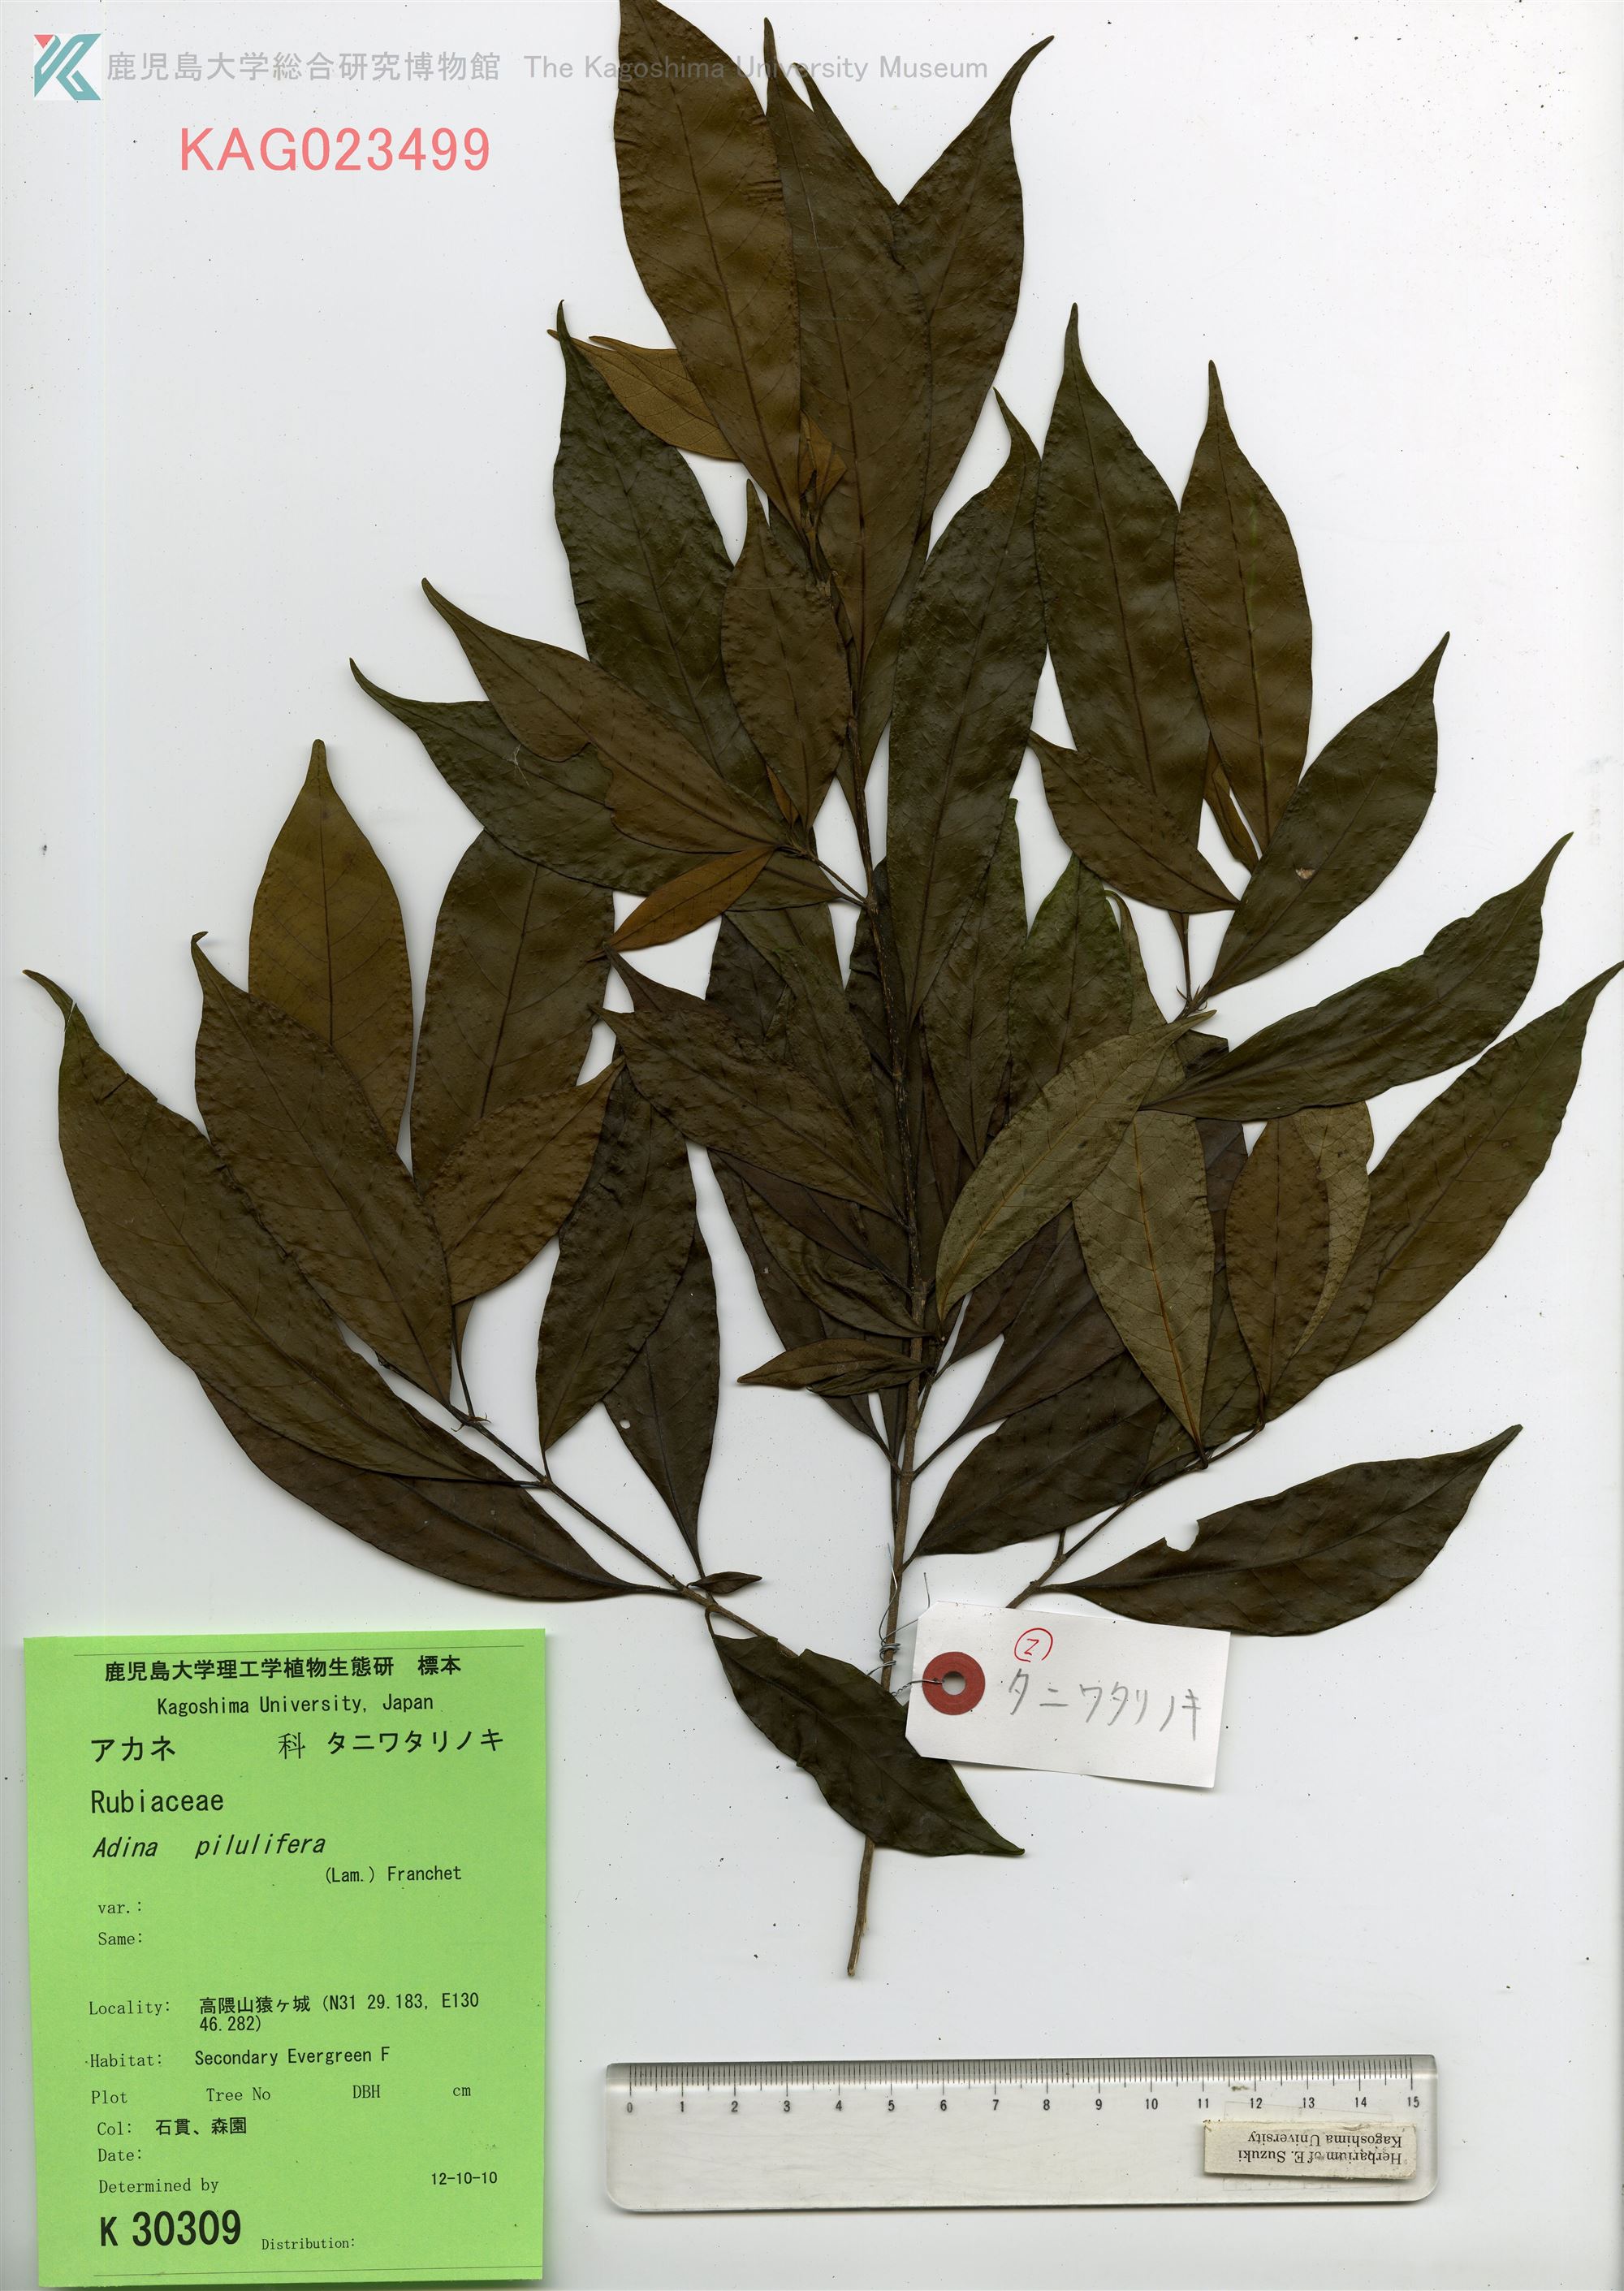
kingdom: Plantae
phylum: Tracheophyta
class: Magnoliopsida
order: Gentianales
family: Rubiaceae
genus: Adina
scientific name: Adina pilulifera
